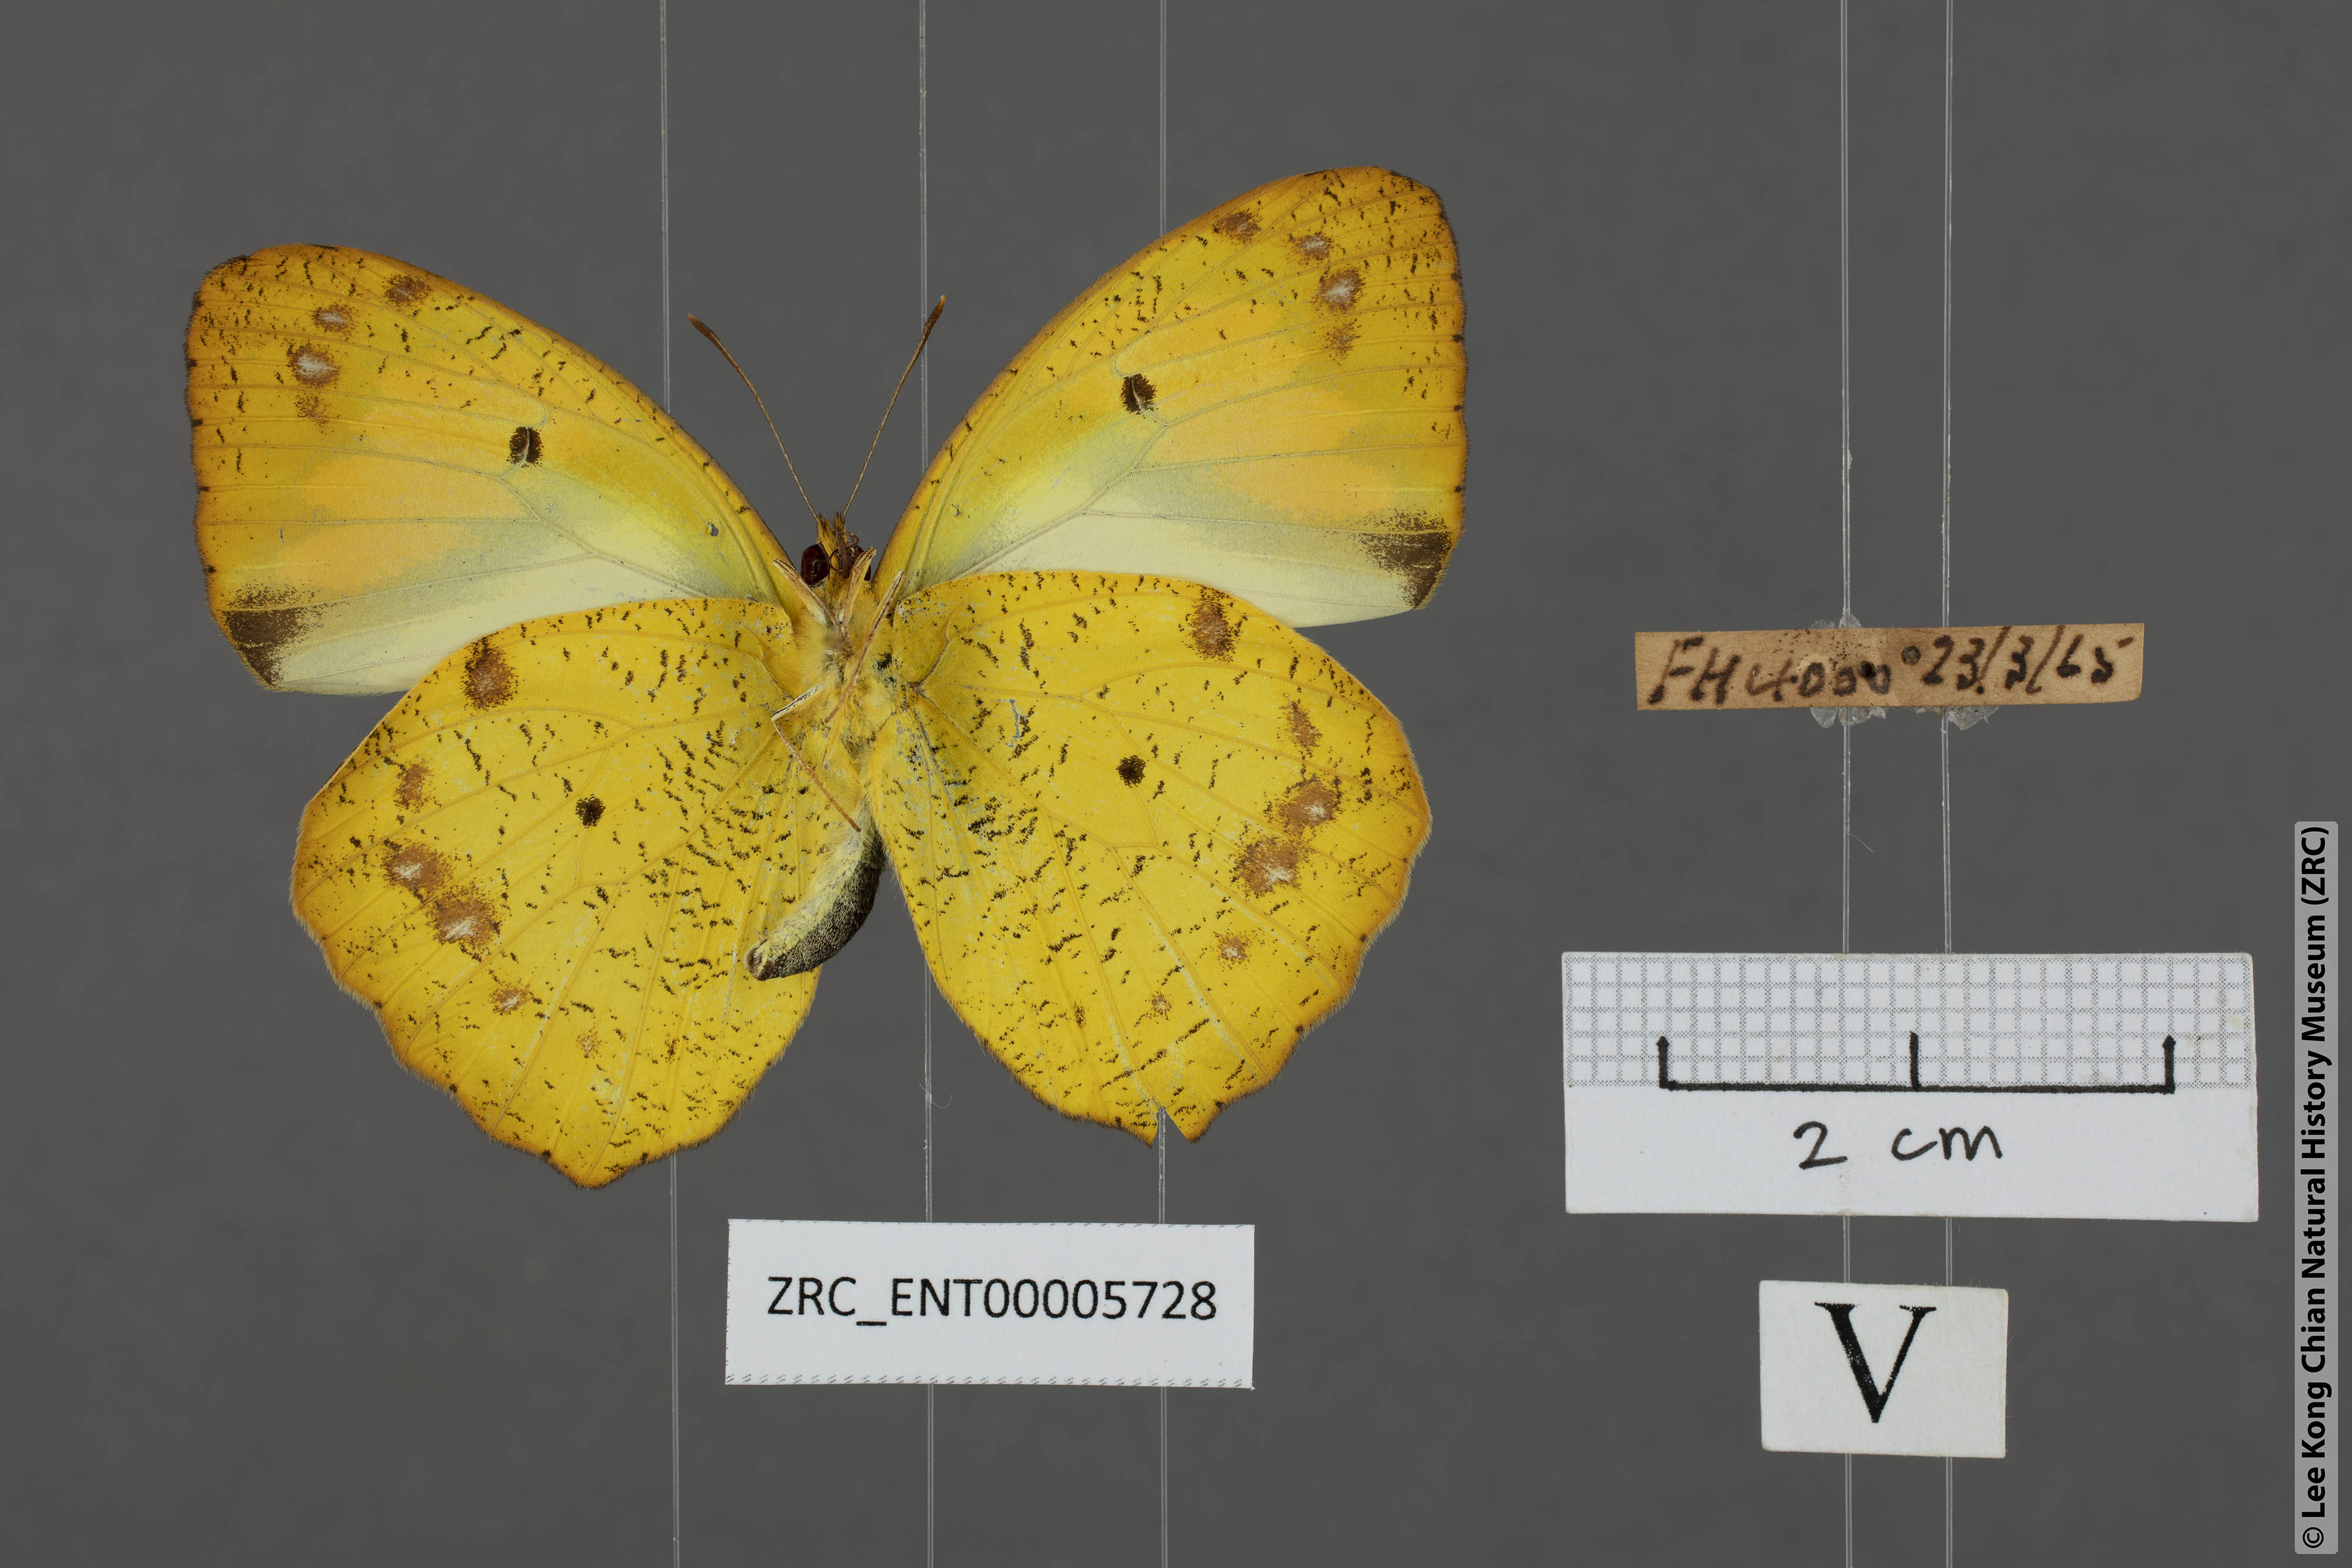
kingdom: Animalia
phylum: Arthropoda
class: Insecta
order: Lepidoptera
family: Pieridae
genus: Ixias
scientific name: Ixias pyrene
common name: Yellow orange tip
